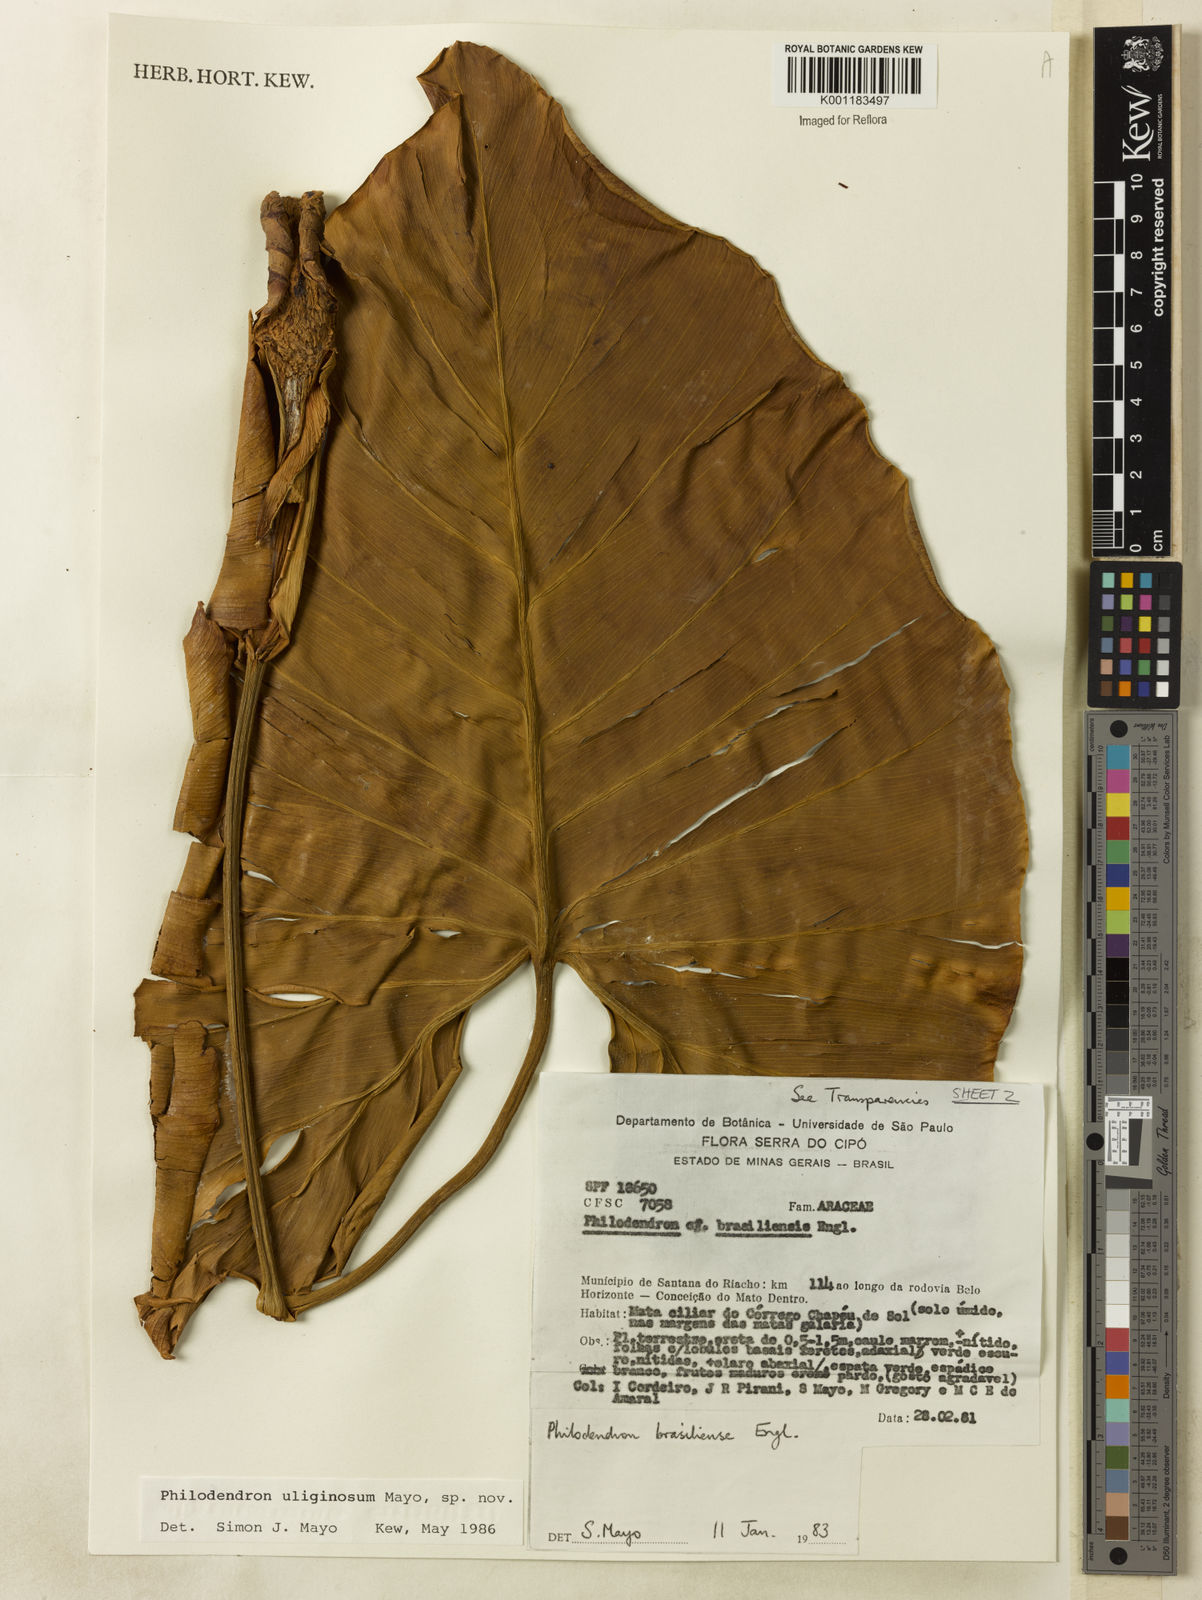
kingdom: Plantae
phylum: Tracheophyta
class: Liliopsida
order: Alismatales
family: Araceae
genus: Thaumatophyllum
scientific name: Thaumatophyllum uliginosum
